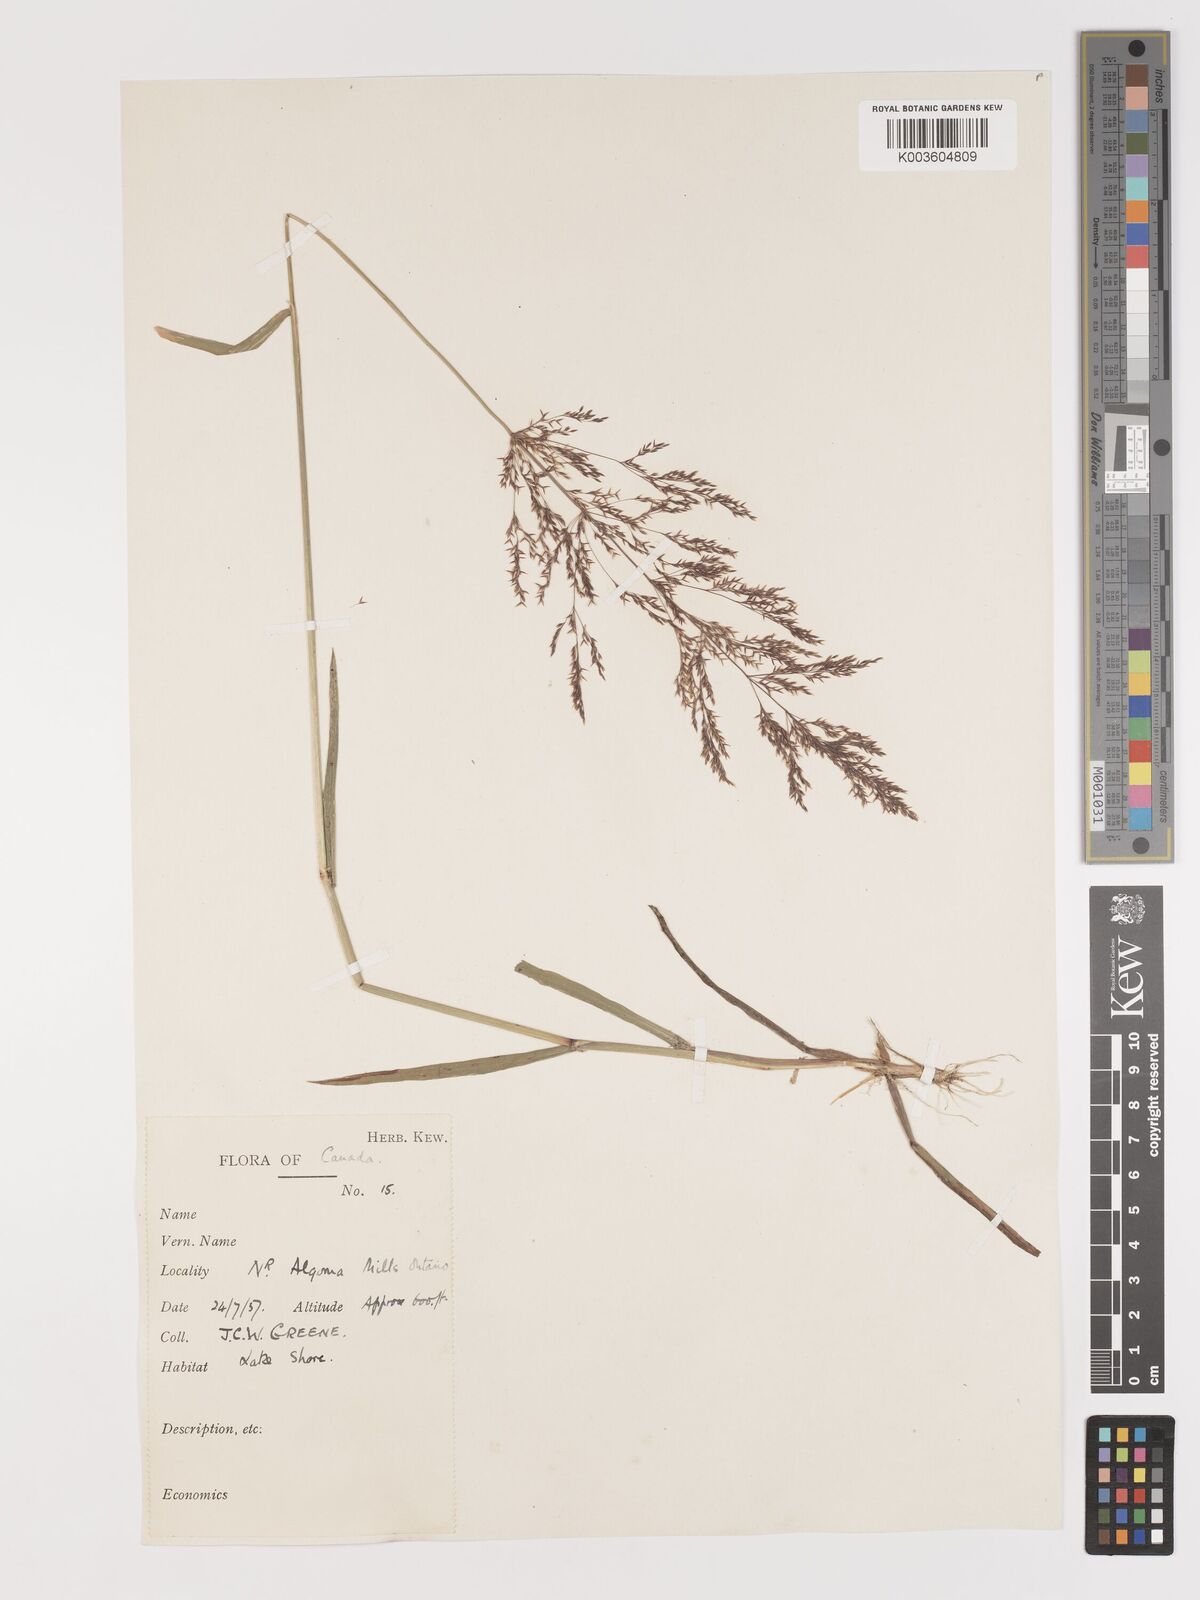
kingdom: Plantae
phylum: Tracheophyta
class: Liliopsida
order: Poales
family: Poaceae
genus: Agrostis
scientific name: Agrostis
